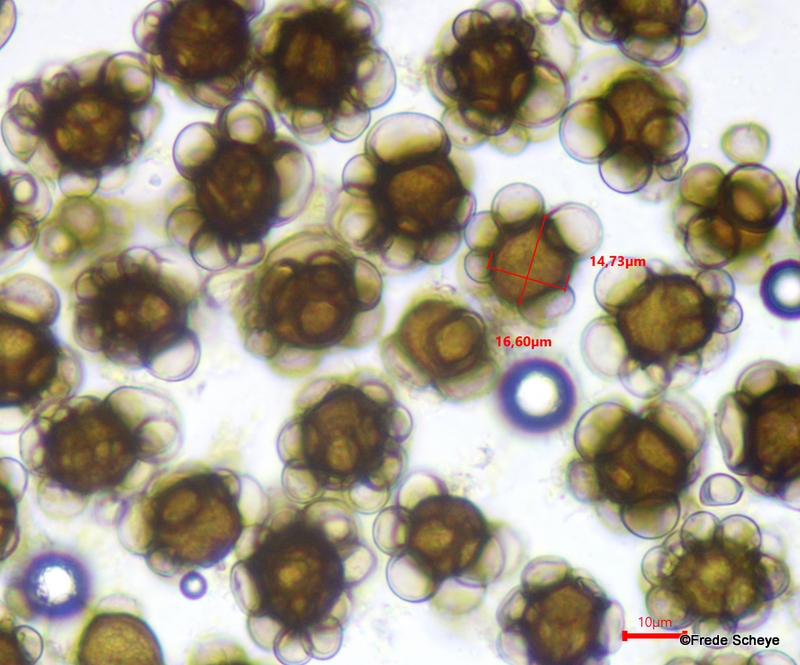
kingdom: Fungi
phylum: Basidiomycota
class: Ustilaginomycetes
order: Urocystidales
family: Urocystidaceae
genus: Urocystis
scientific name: Urocystis eranthidis
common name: erantis-brand
